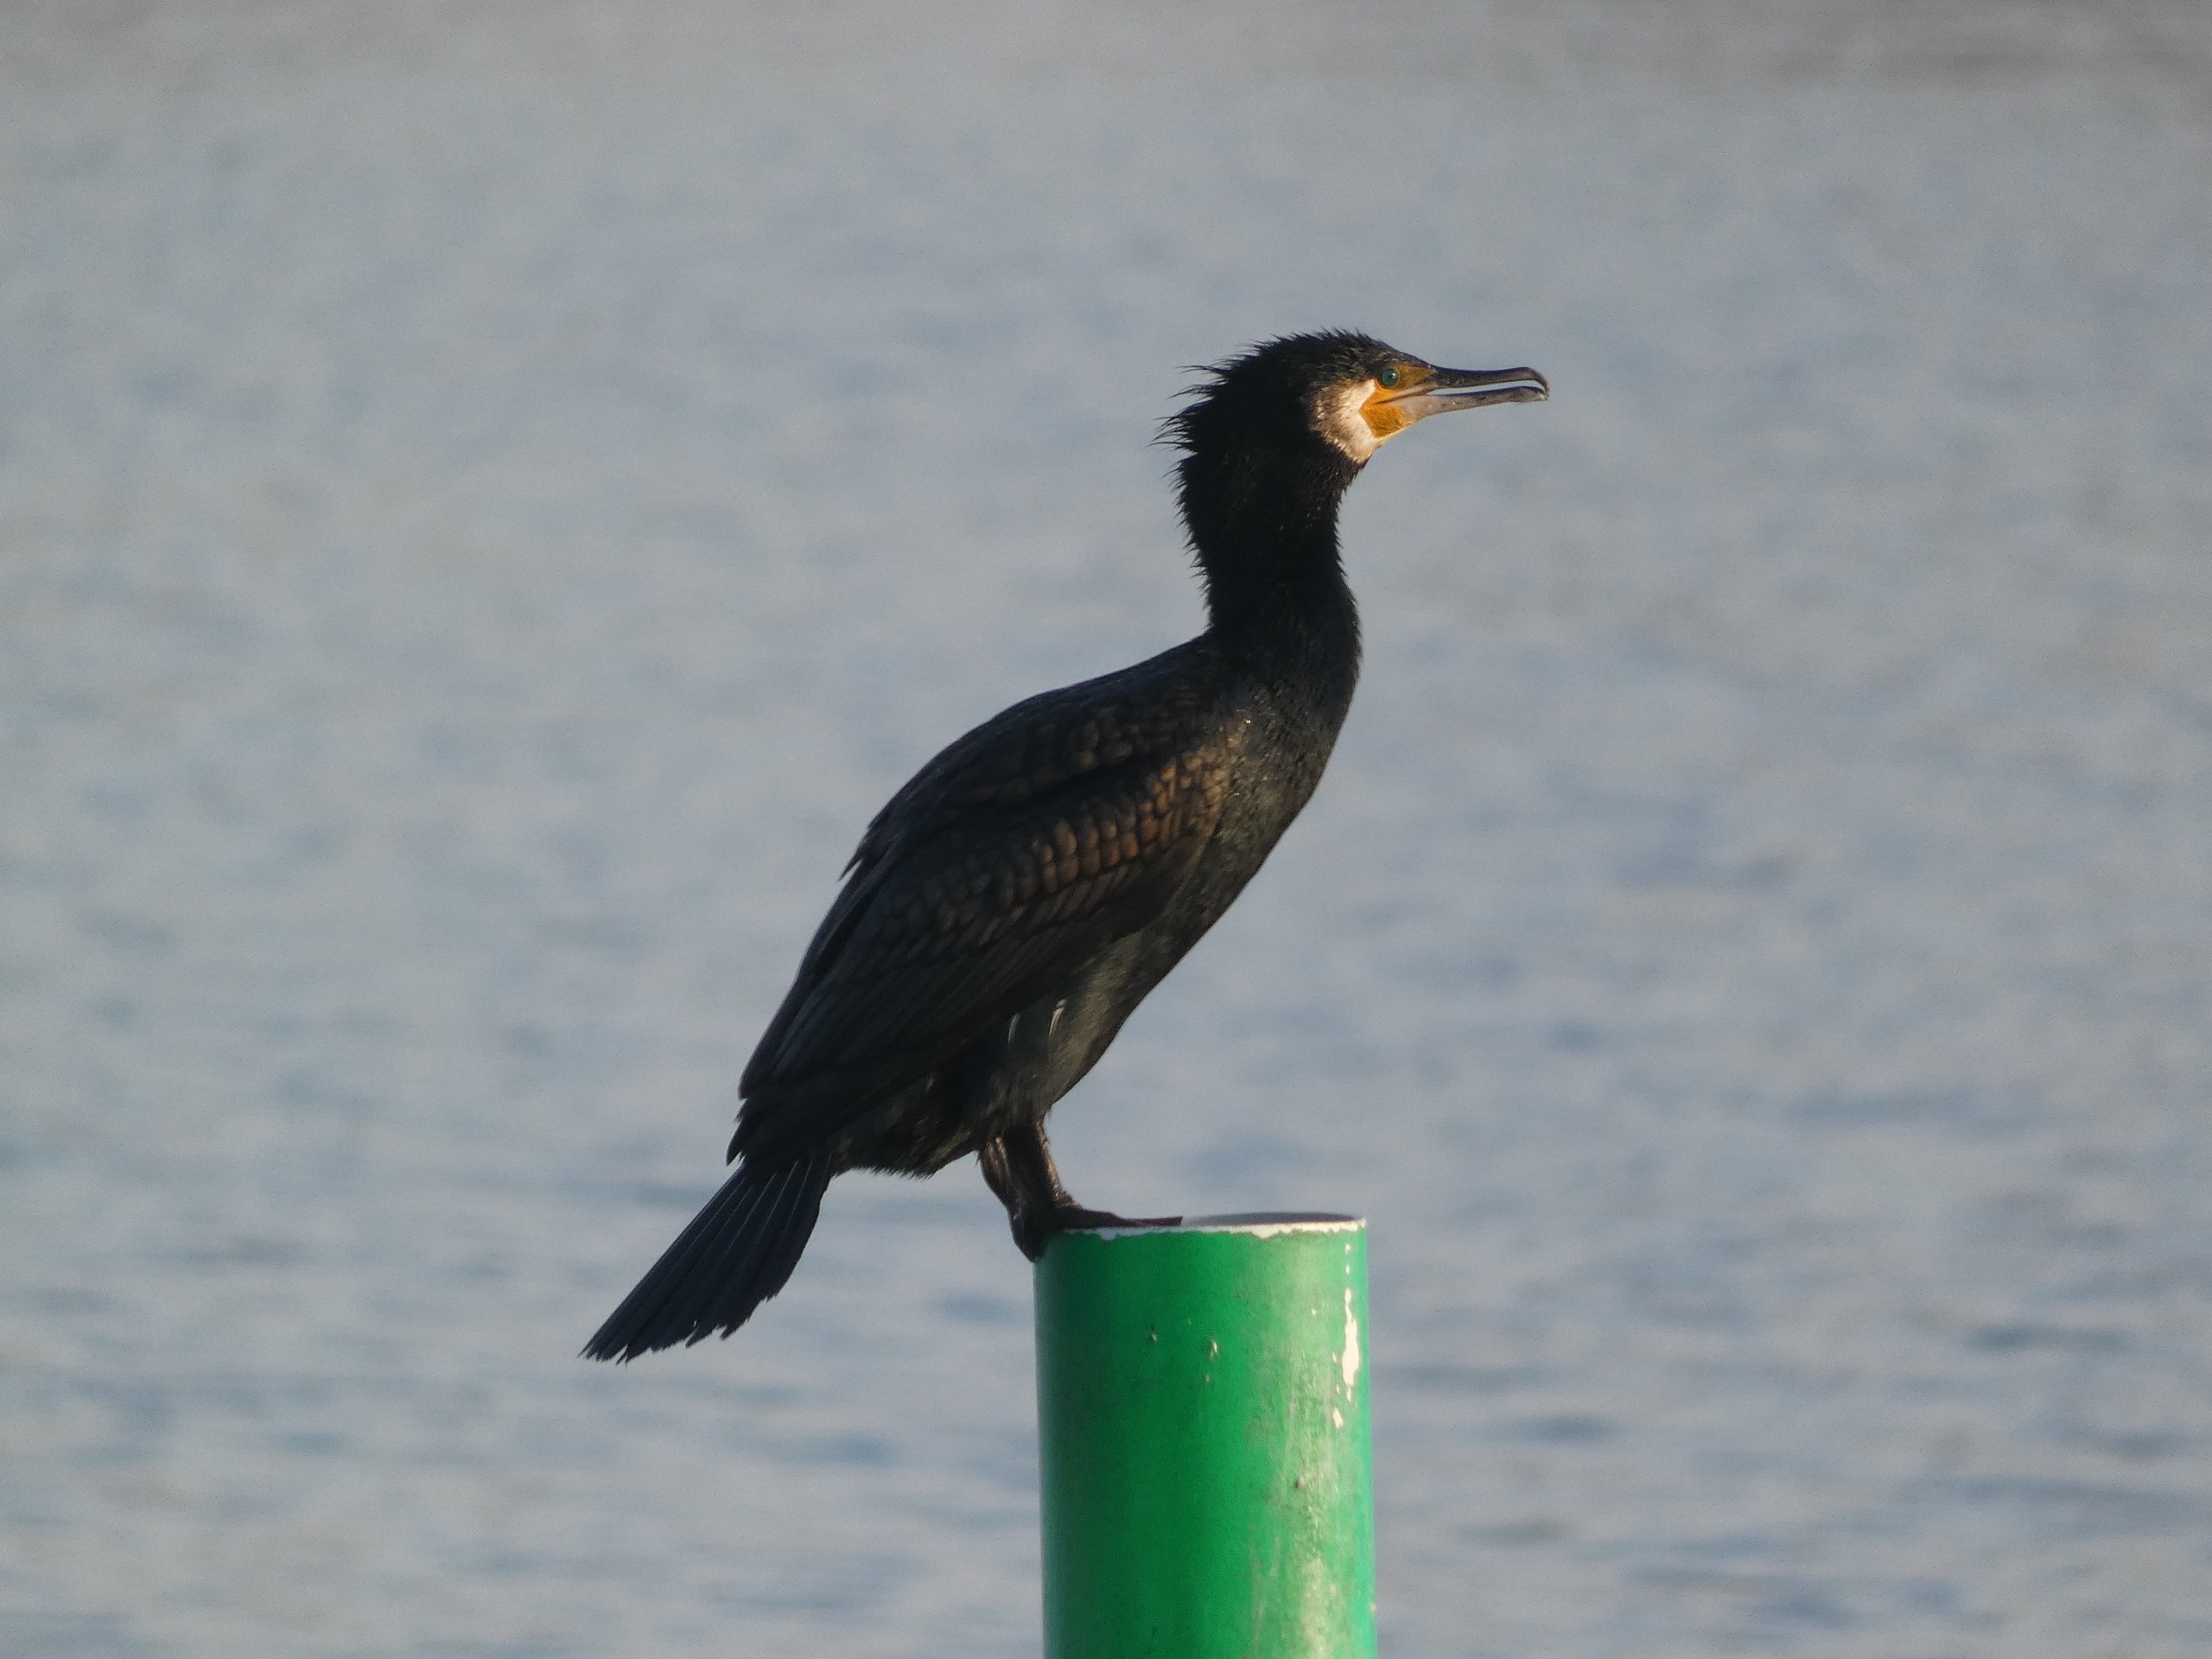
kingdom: Animalia
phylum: Chordata
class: Aves
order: Suliformes
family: Phalacrocoracidae
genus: Phalacrocorax
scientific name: Phalacrocorax carbo
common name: Skarv
